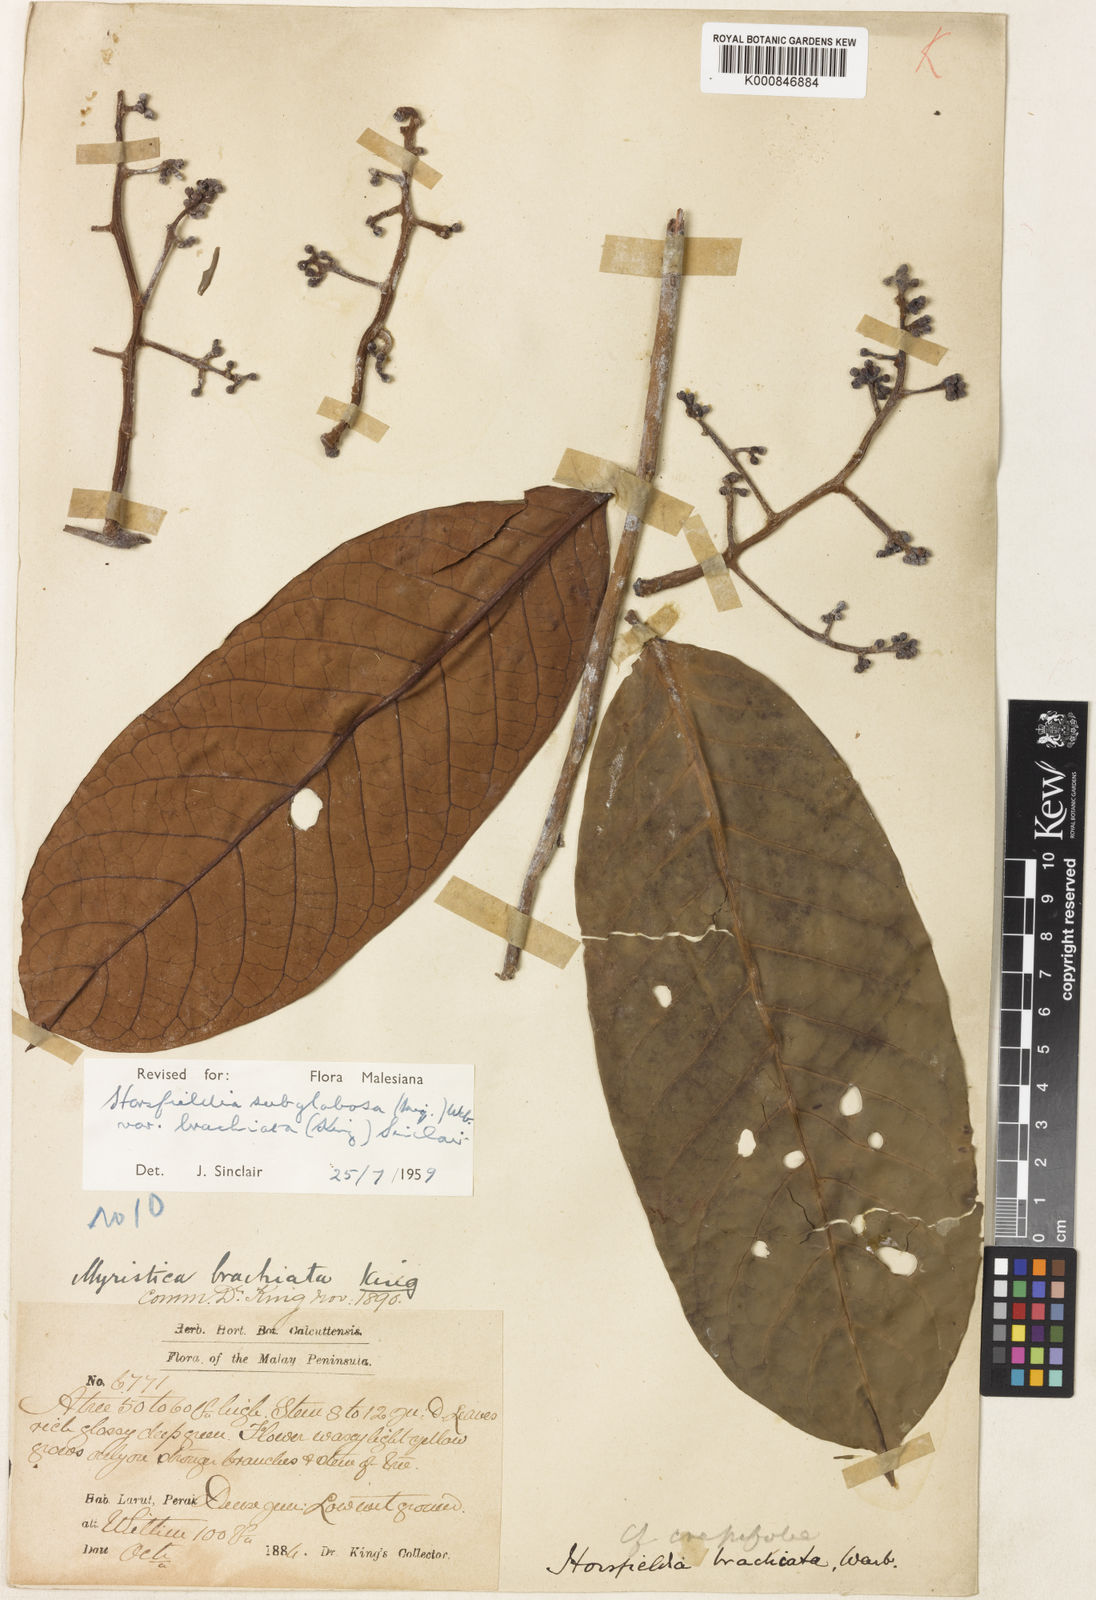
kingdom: Plantae
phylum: Tracheophyta
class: Magnoliopsida
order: Magnoliales
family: Myristicaceae
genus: Horsfieldia
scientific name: Horsfieldia irya
